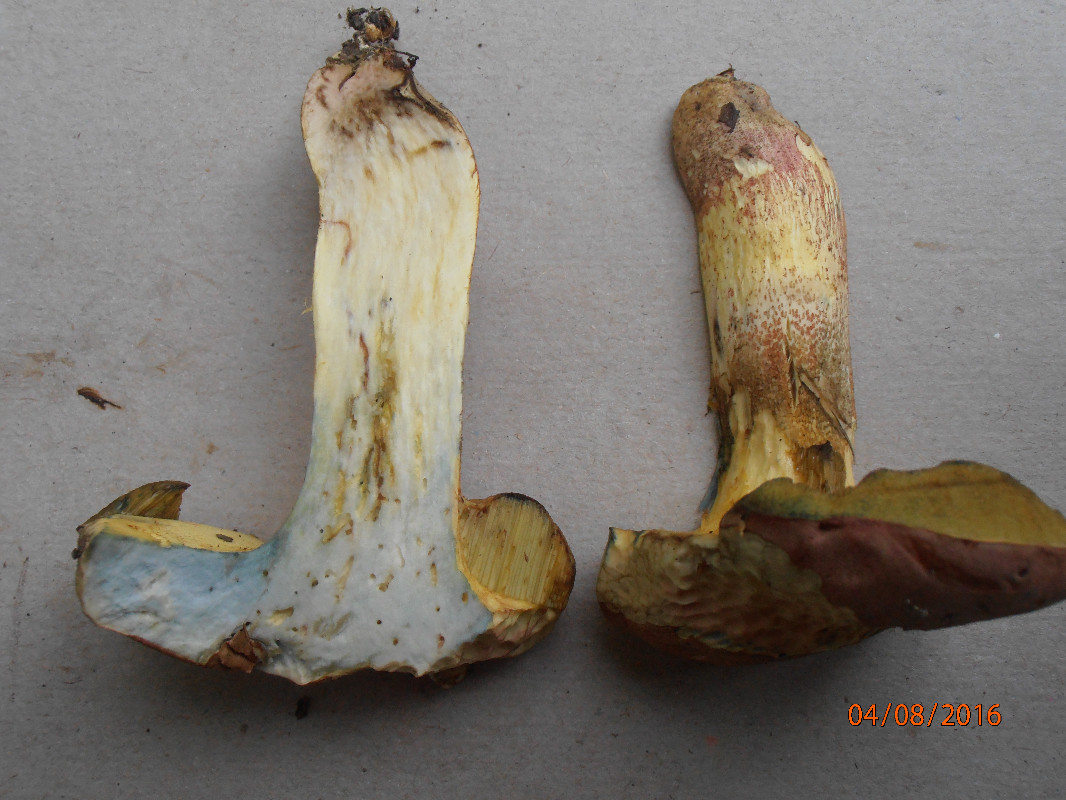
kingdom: Fungi
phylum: Basidiomycota
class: Agaricomycetes
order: Boletales
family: Boletaceae
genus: Butyriboletus
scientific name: Butyriboletus fuscoroseus
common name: brunrosa rørhat
